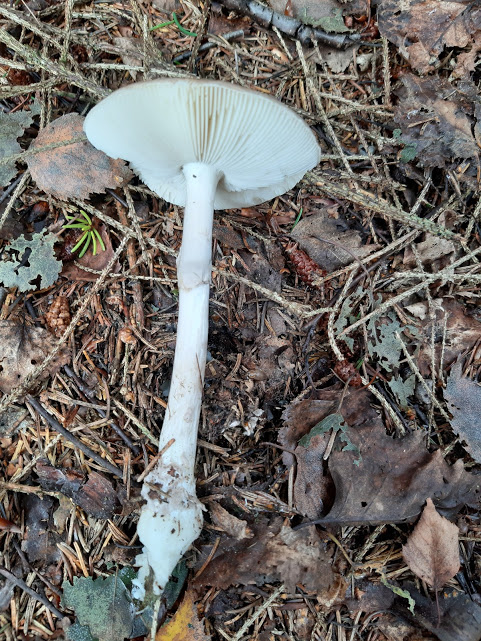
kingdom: Fungi
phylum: Basidiomycota
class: Agaricomycetes
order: Agaricales
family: Amanitaceae
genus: Amanita
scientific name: Amanita porphyria
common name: porfyr-fluesvamp
